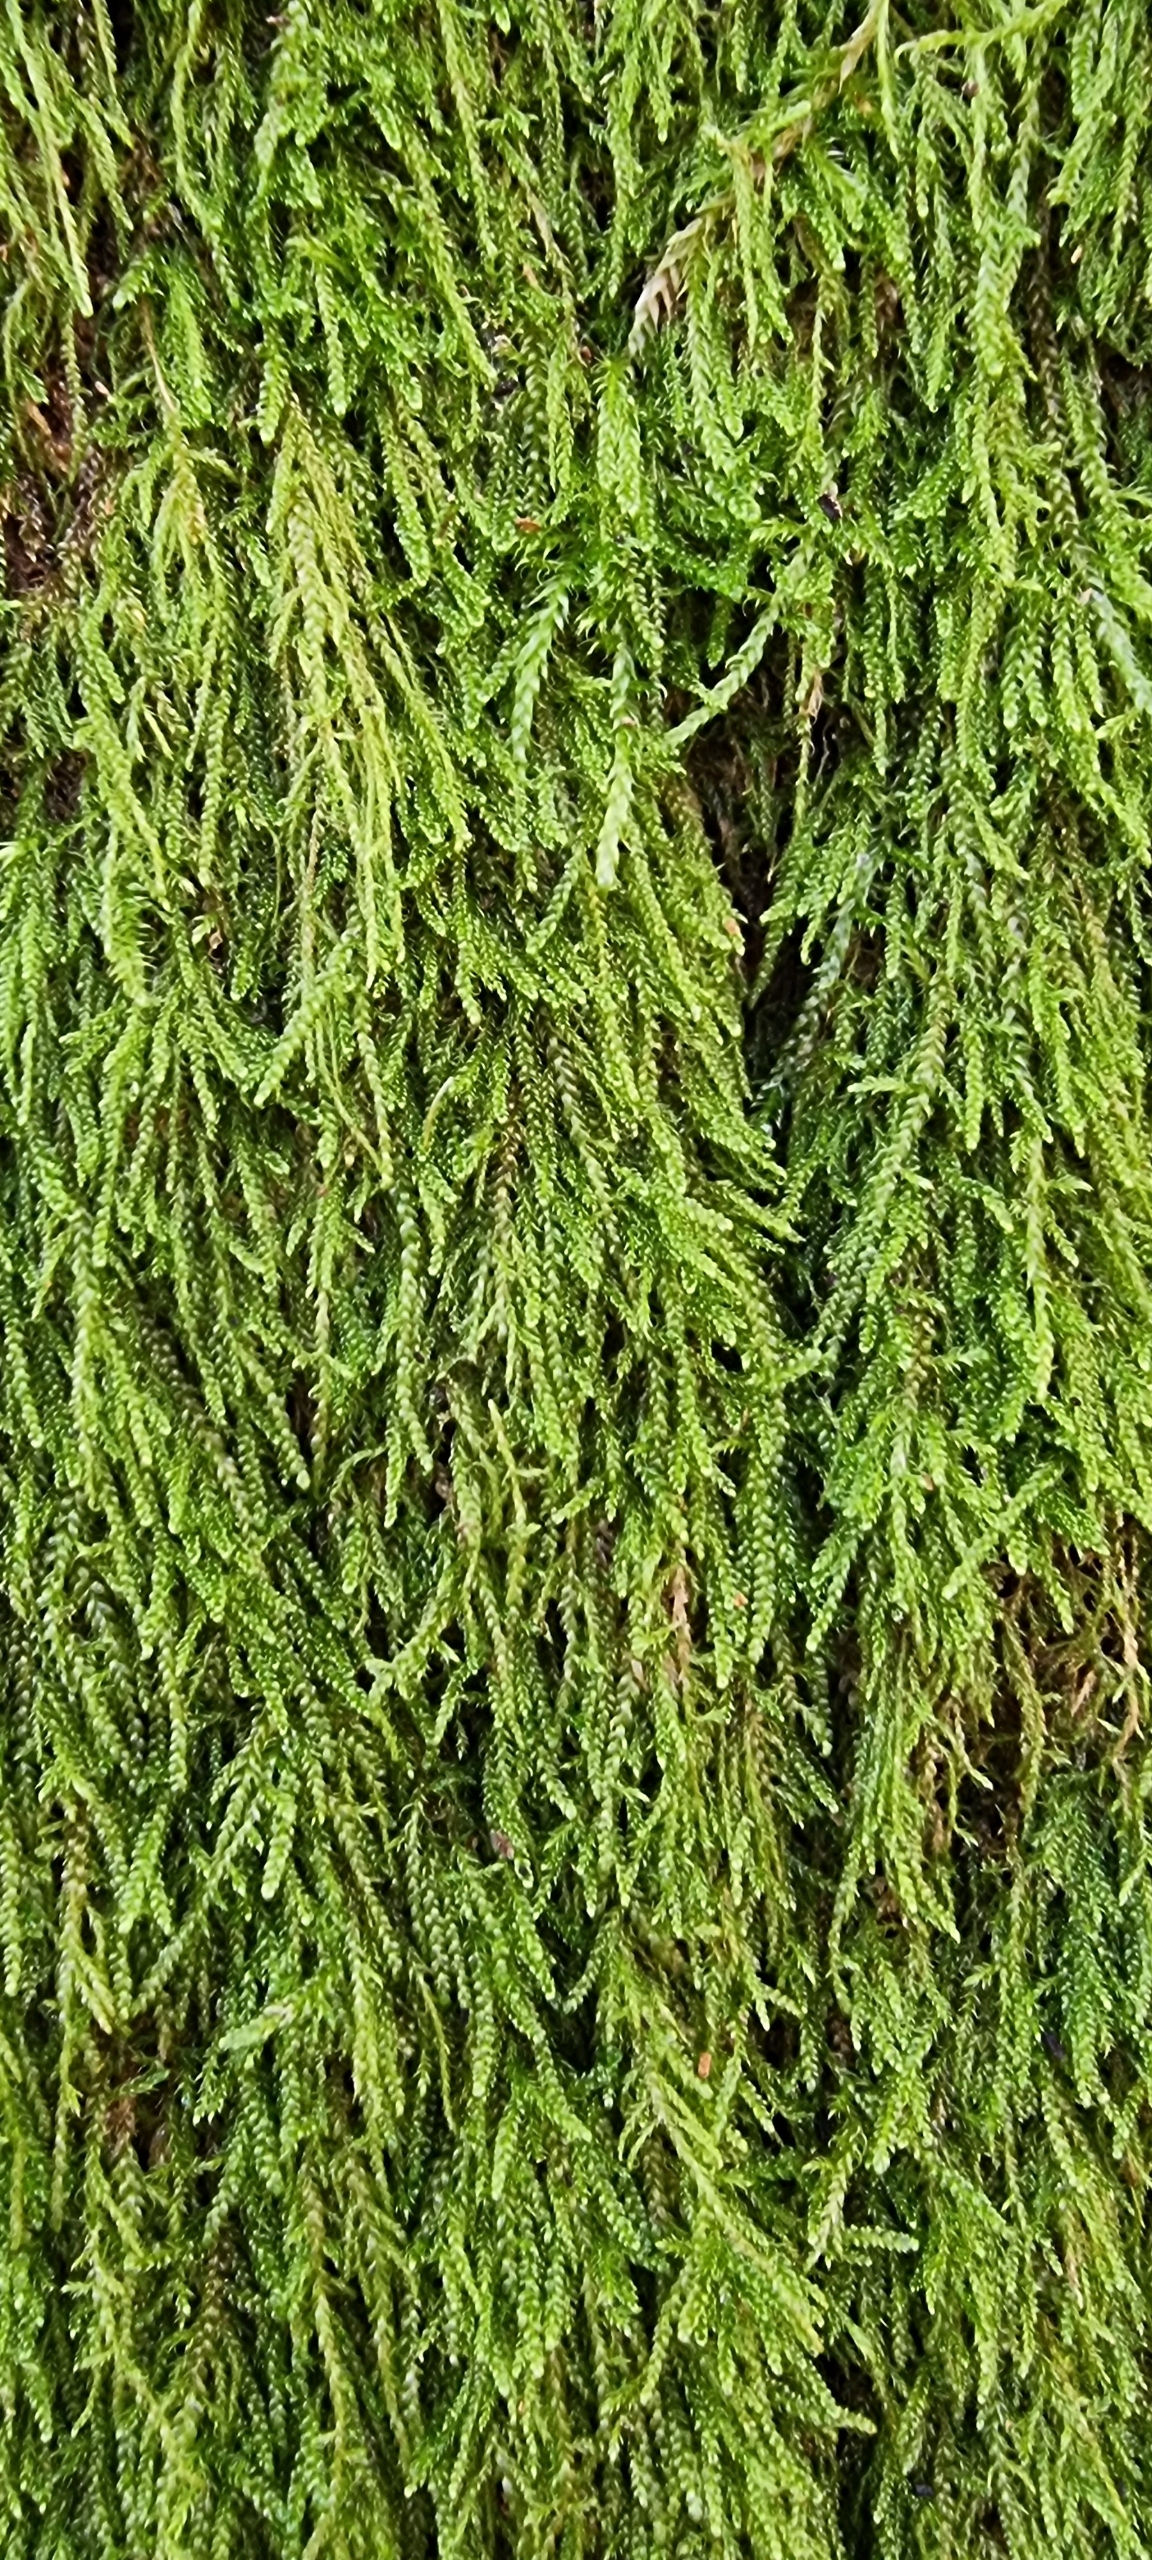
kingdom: Plantae
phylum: Bryophyta
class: Bryopsida
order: Hypnales
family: Hypnaceae
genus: Hypnum
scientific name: Hypnum
